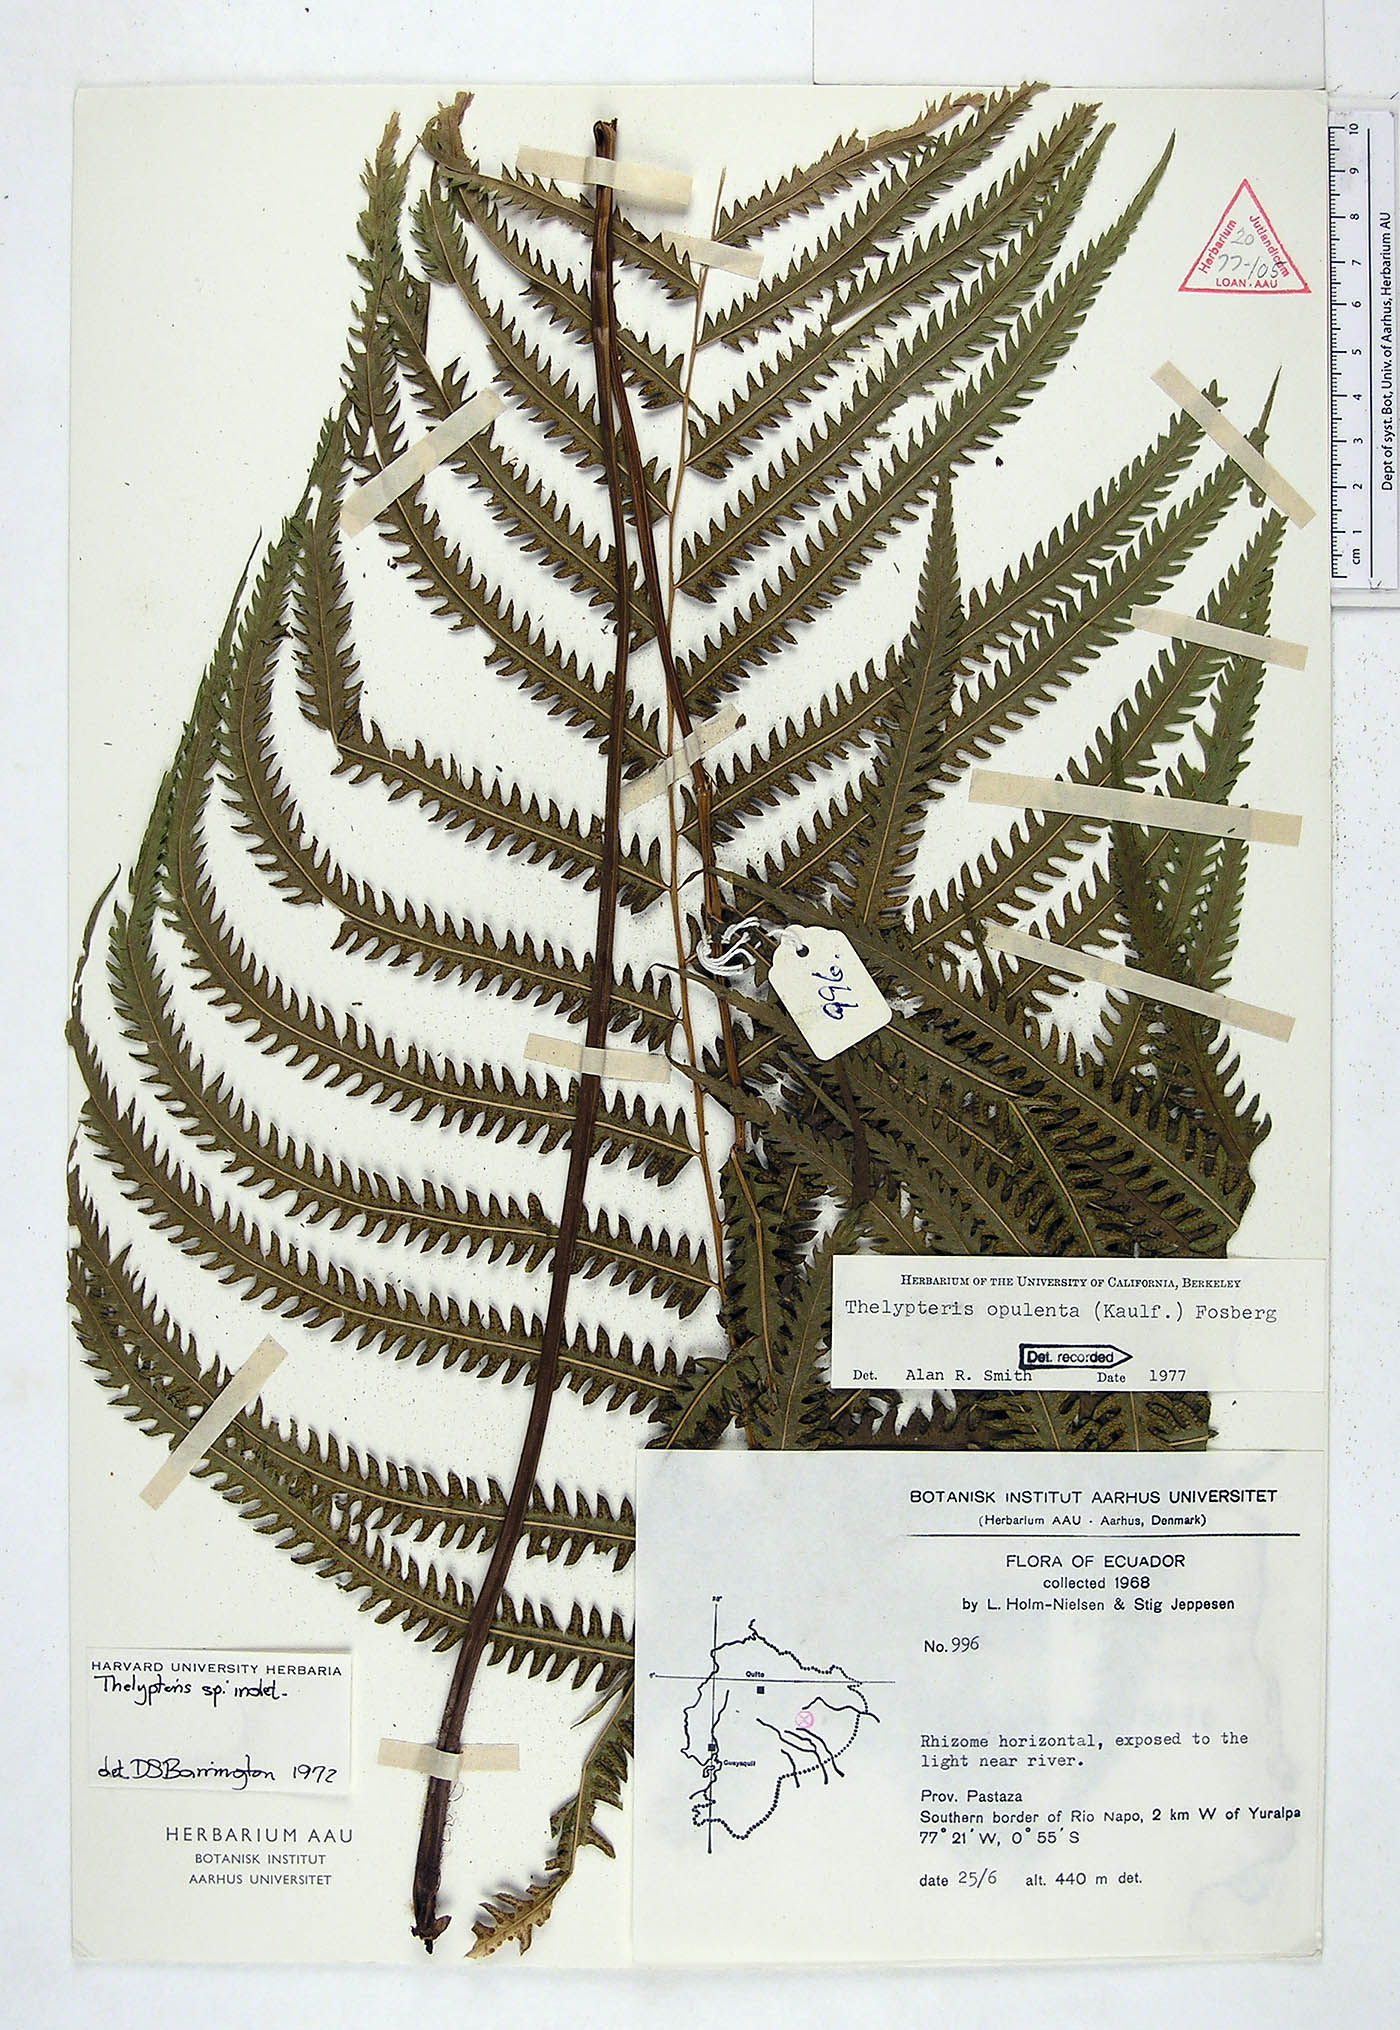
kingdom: Plantae
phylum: Tracheophyta
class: Polypodiopsida
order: Polypodiales
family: Thelypteridaceae
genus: Amblovenatum
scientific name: Amblovenatum opulentum
